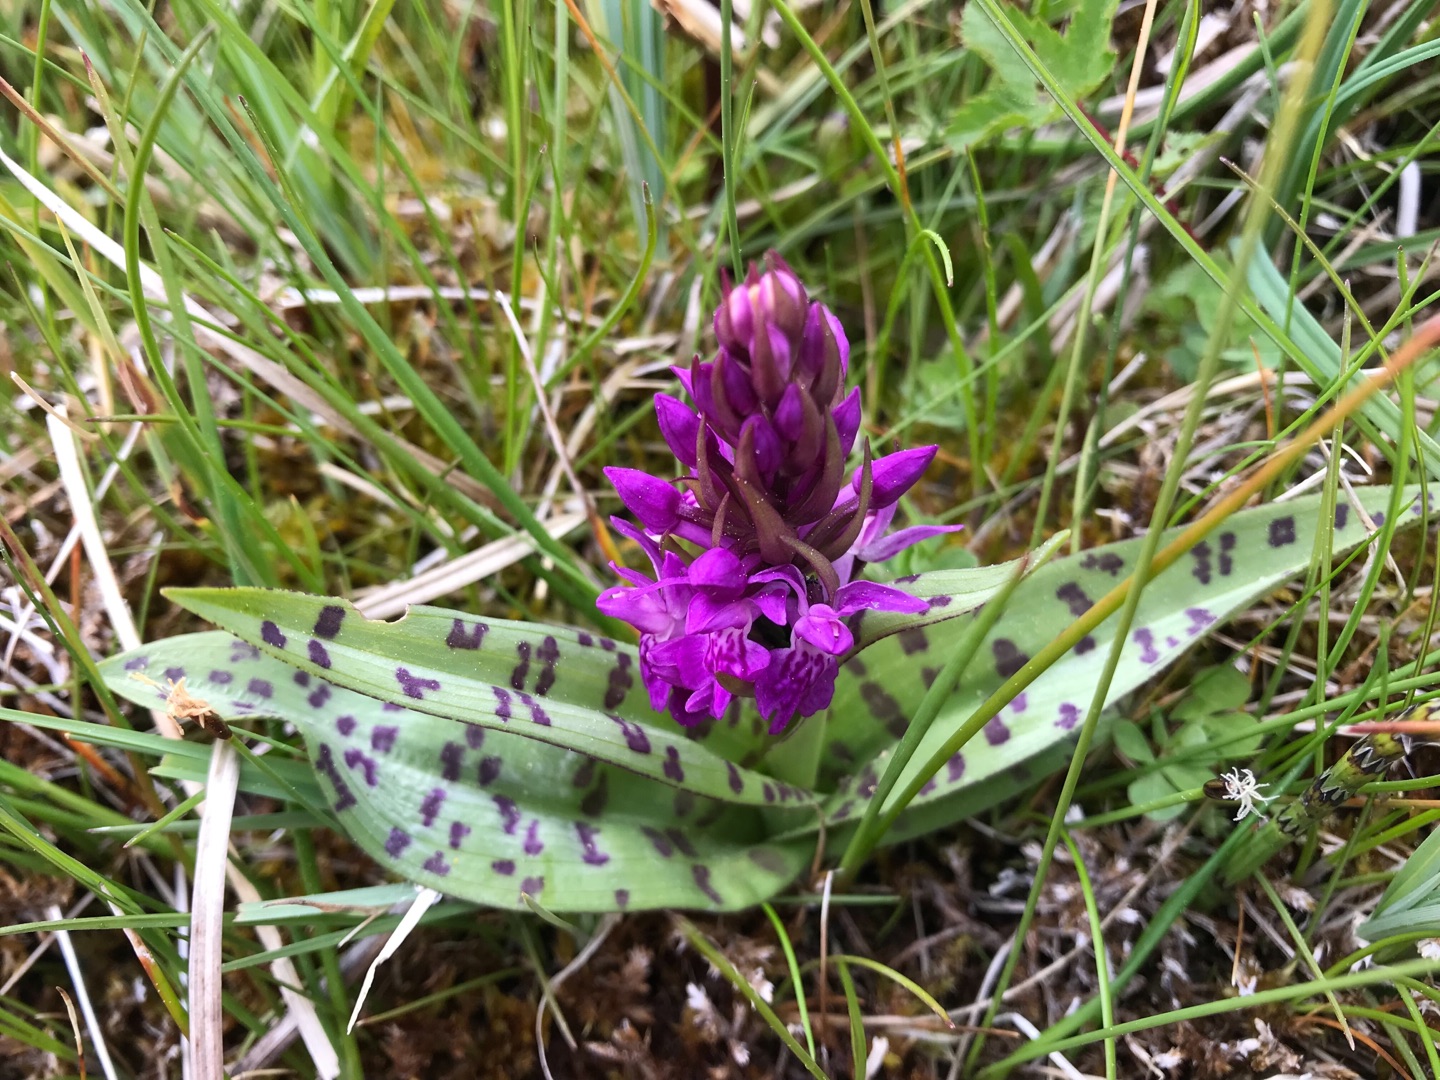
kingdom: Plantae
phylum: Tracheophyta
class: Liliopsida
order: Asparagales
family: Orchidaceae
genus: Dactylorhiza
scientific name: Dactylorhiza majalis
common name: Maj-gøgeurt
